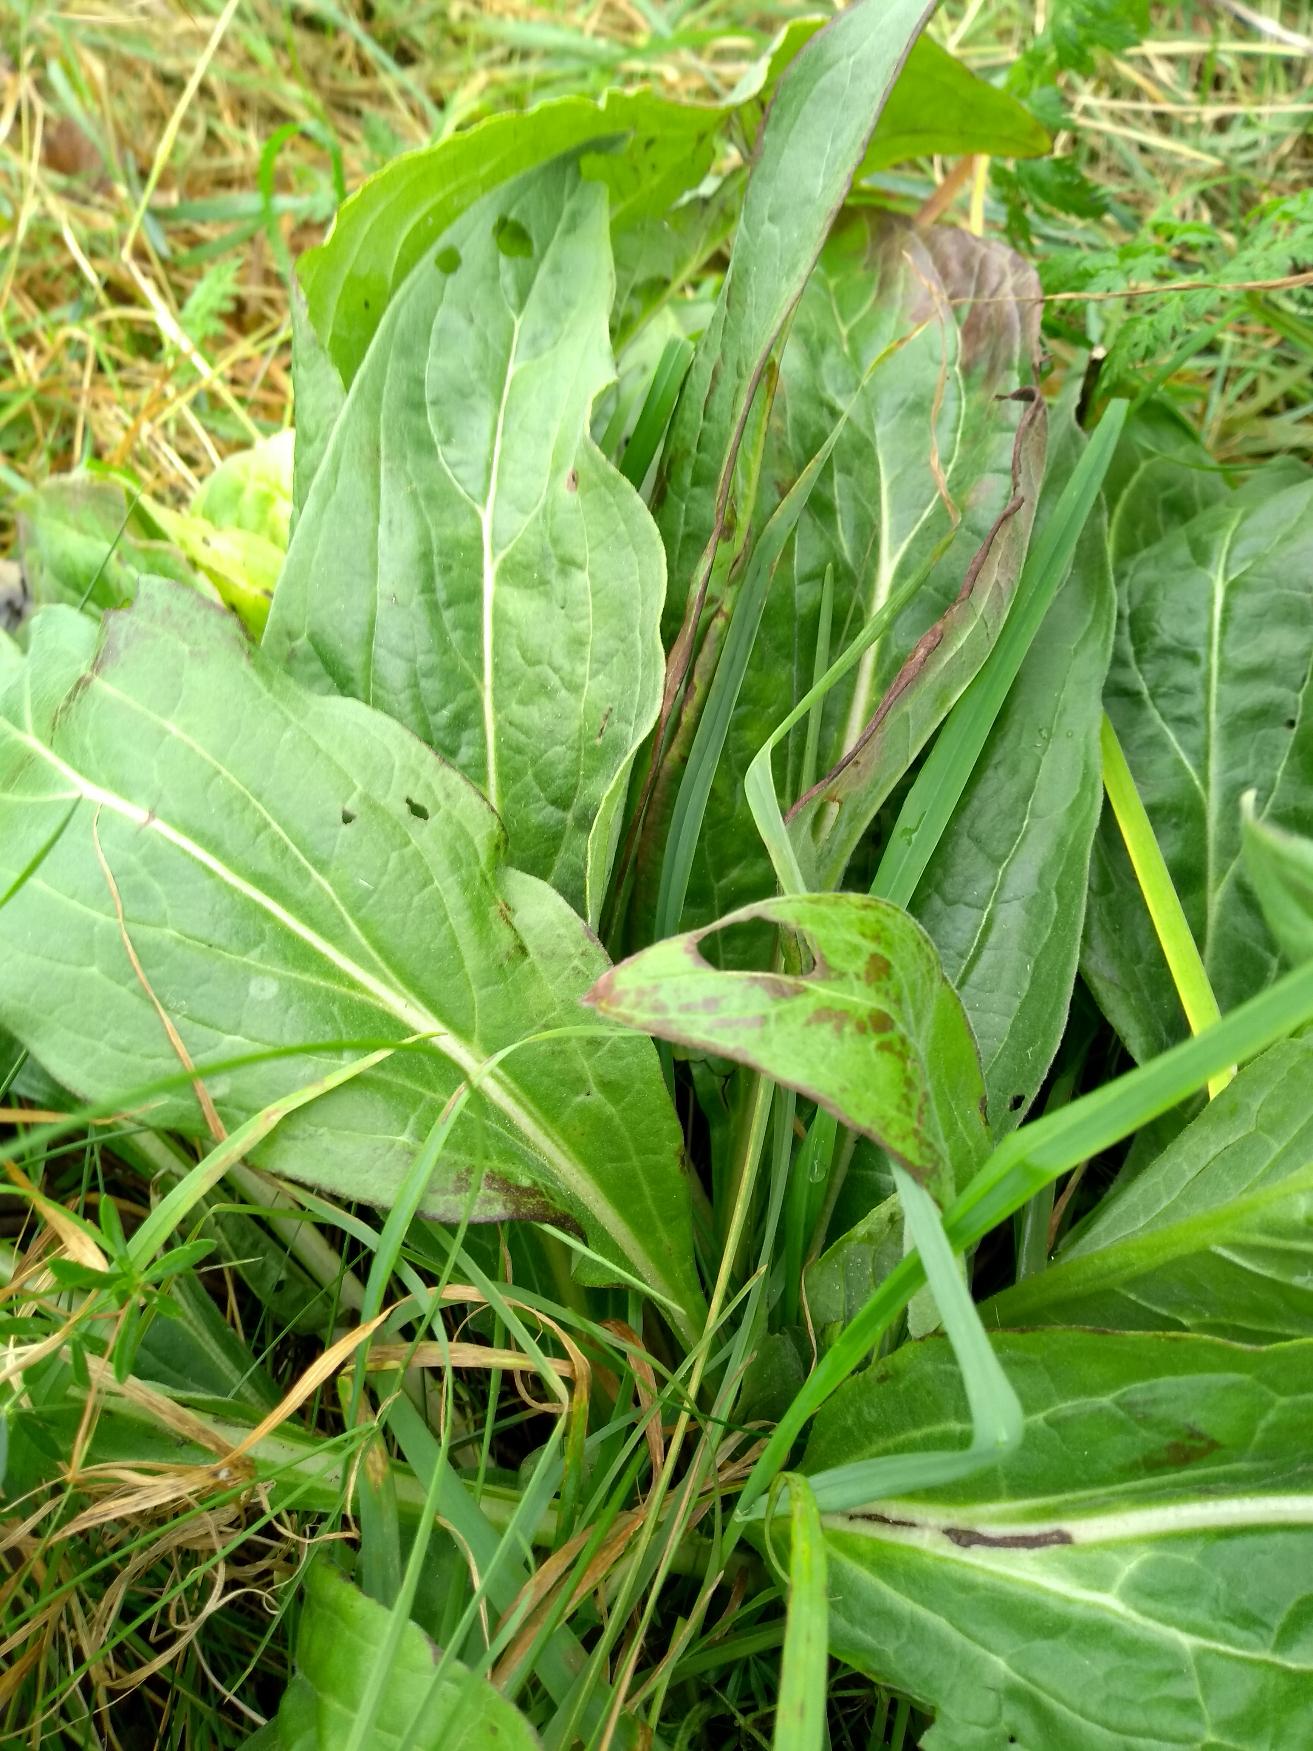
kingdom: Plantae
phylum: Tracheophyta
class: Magnoliopsida
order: Boraginales
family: Boraginaceae
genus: Cynoglossum
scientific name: Cynoglossum officinale
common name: Hundetunge
